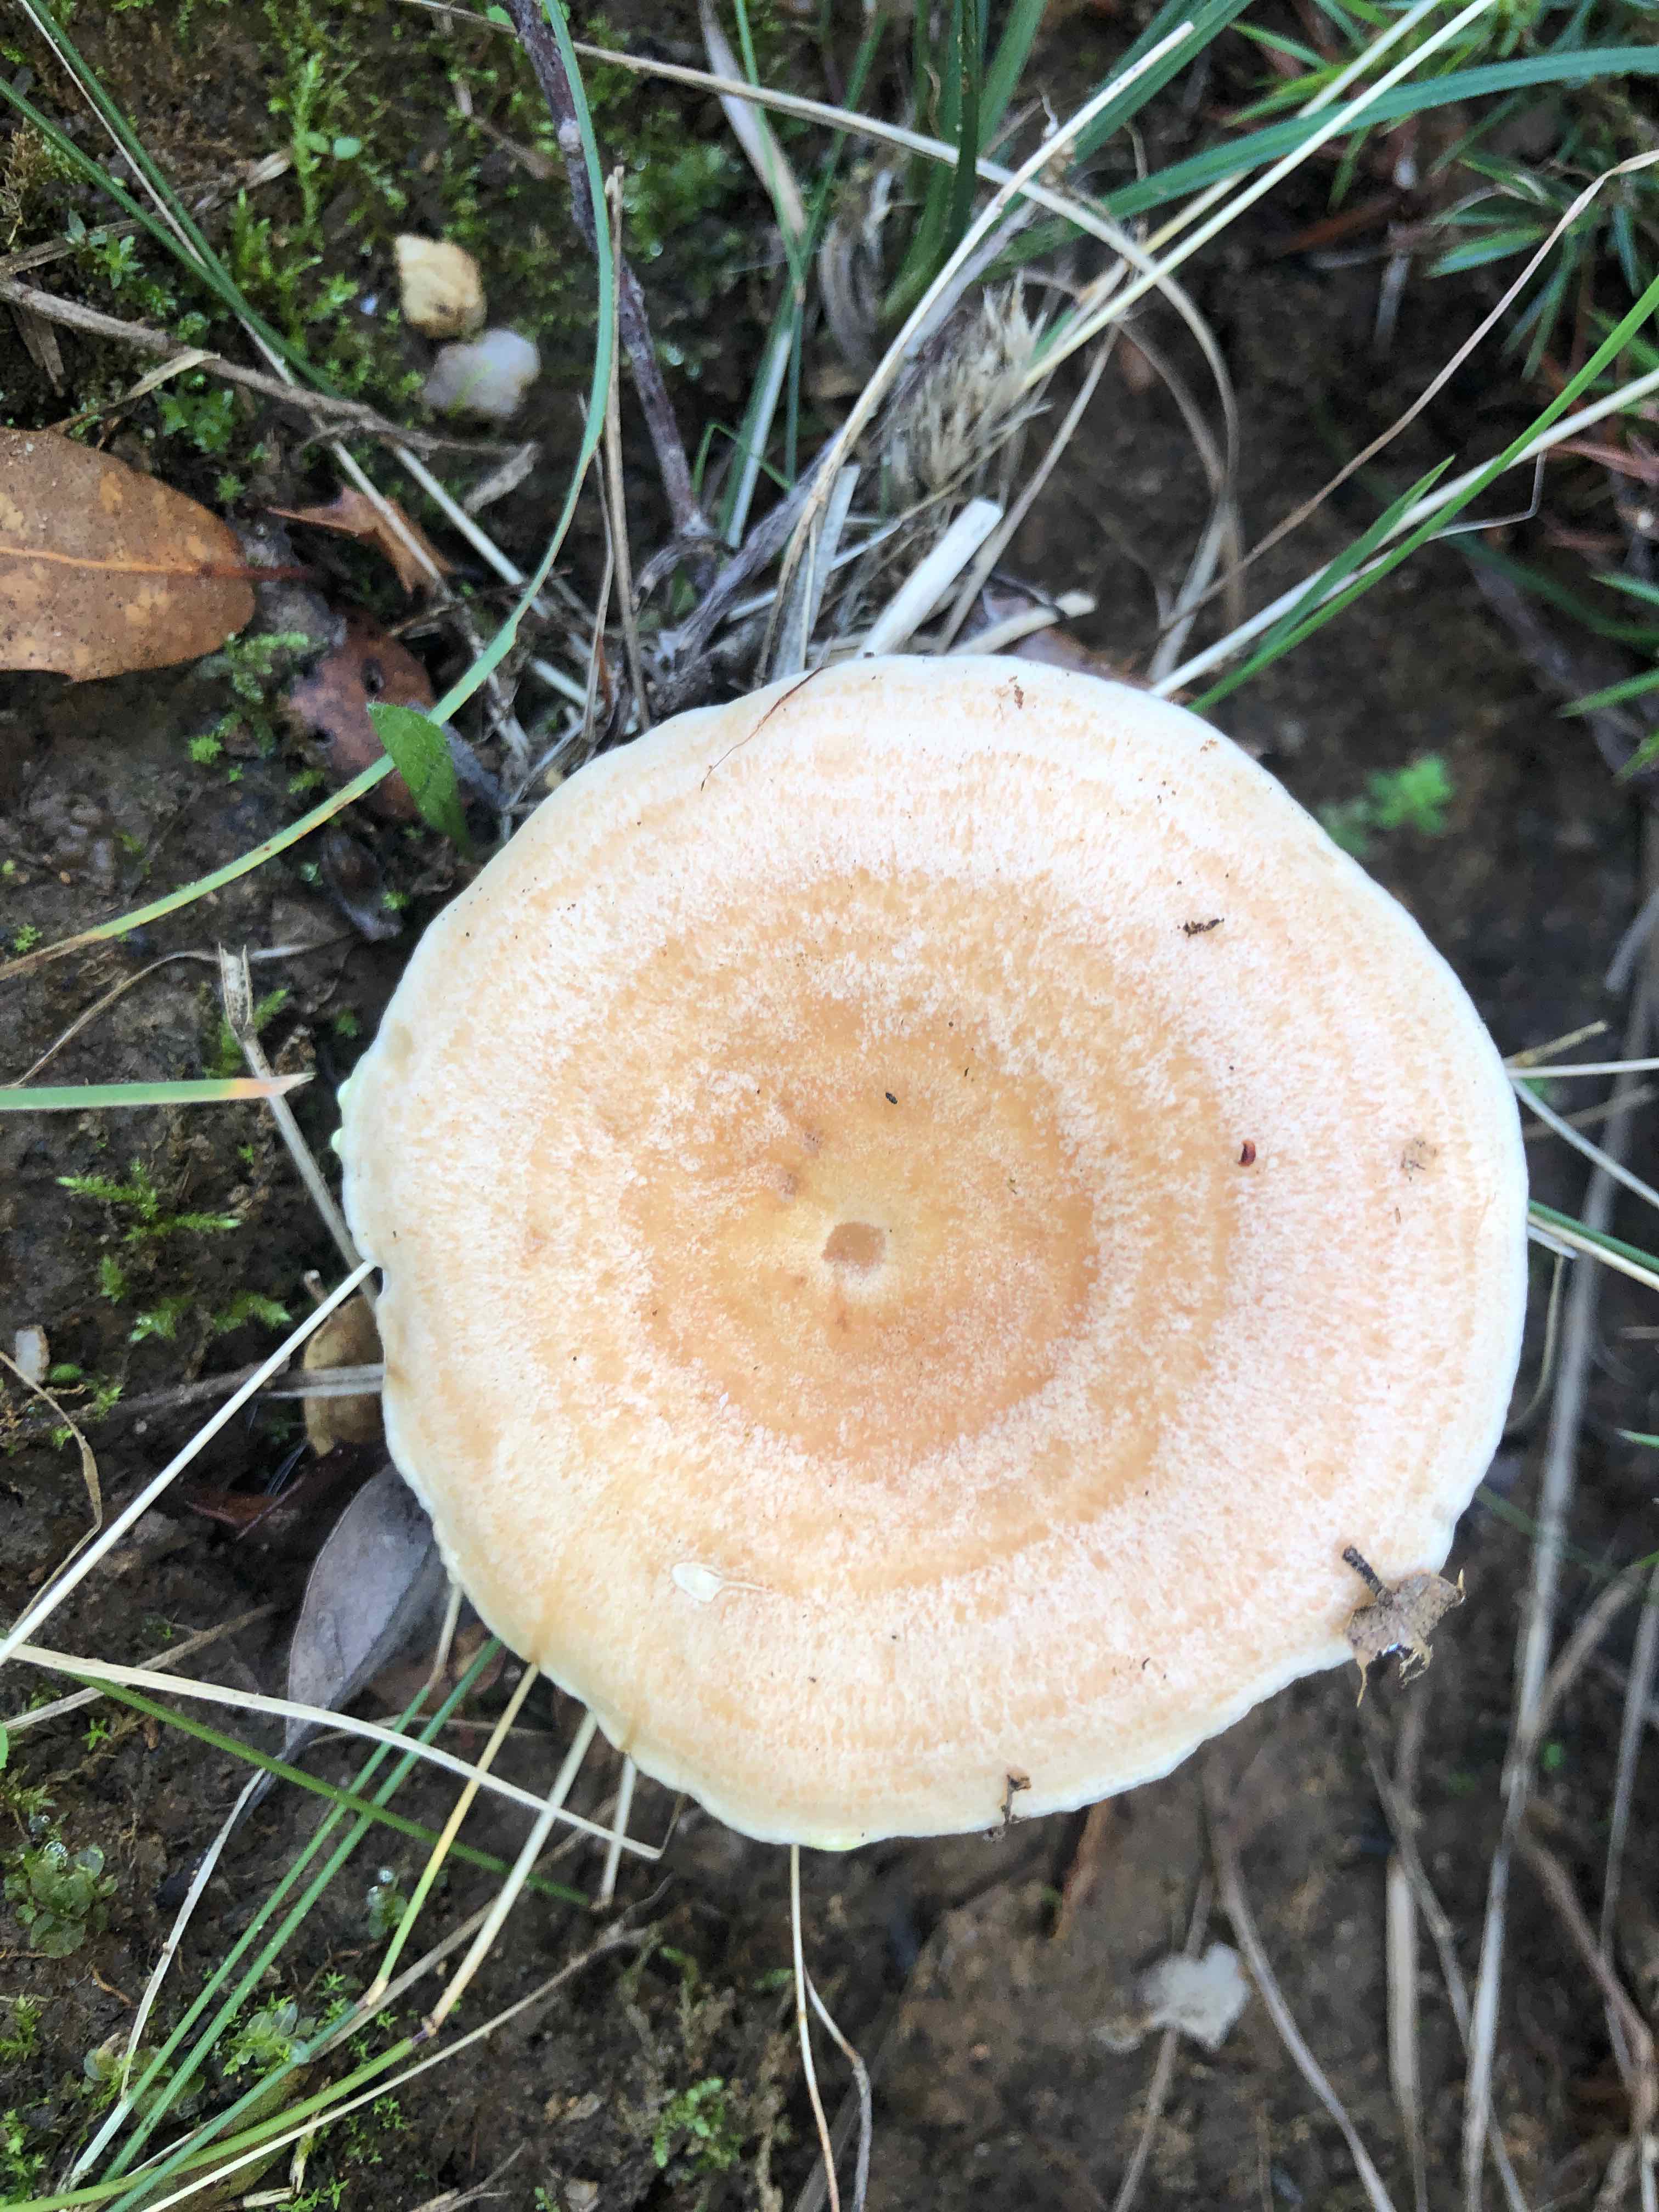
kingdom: Fungi
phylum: Basidiomycota
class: Agaricomycetes
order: Russulales
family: Russulaceae
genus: Lactarius
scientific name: Lactarius chrysorrheus
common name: svovlmælket mælkehat
